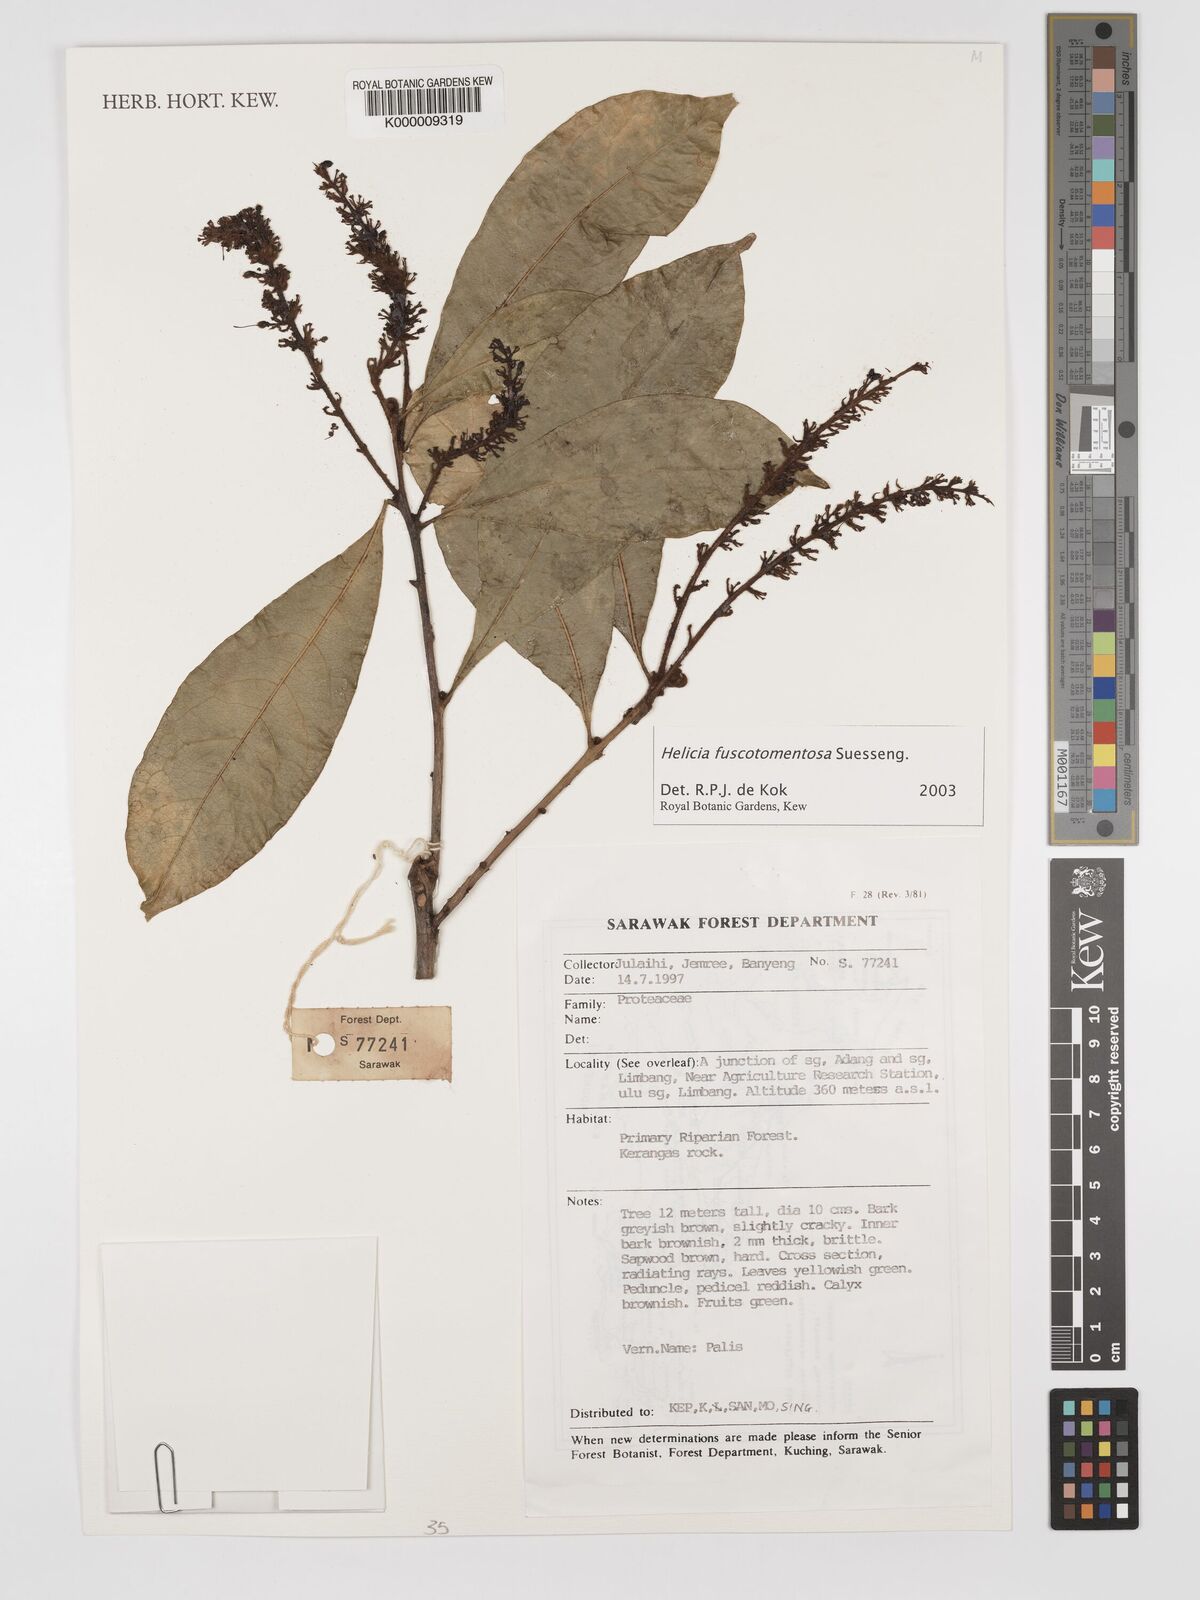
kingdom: Plantae
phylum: Tracheophyta
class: Magnoliopsida
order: Proteales
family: Proteaceae
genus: Helicia
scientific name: Helicia fuscotomentosa
